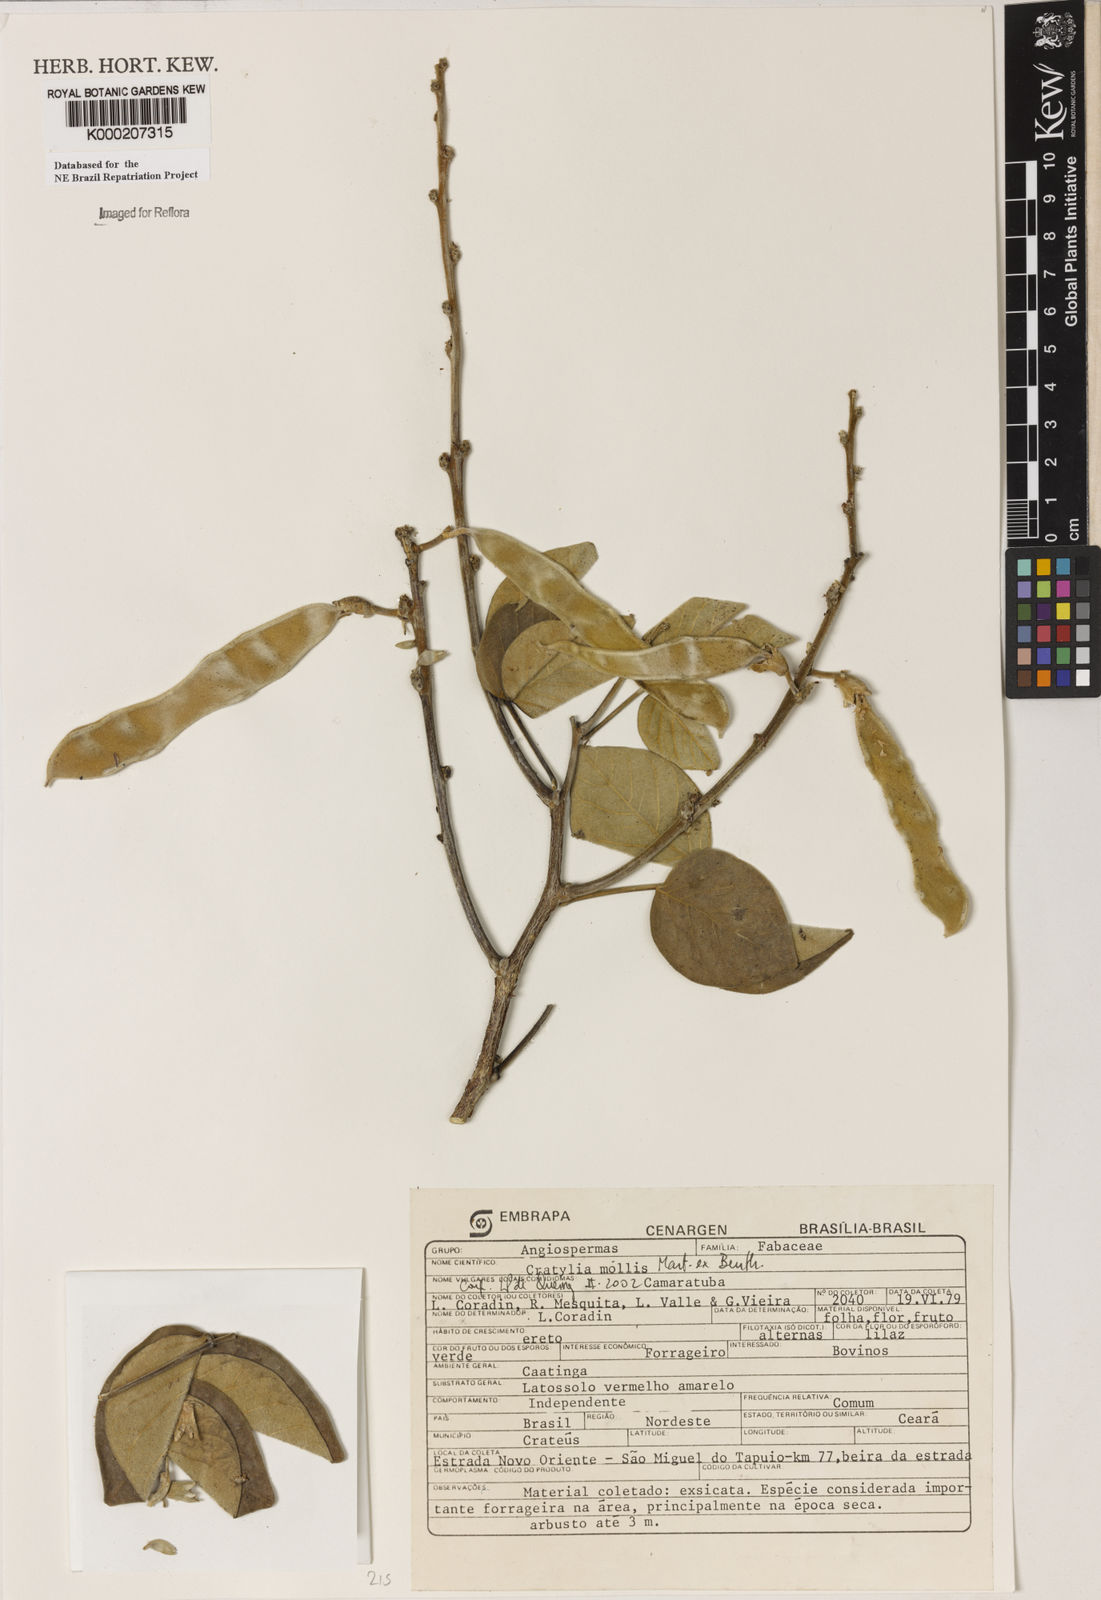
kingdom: Plantae
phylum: Tracheophyta
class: Magnoliopsida
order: Fabales
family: Fabaceae
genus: Cratylia
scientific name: Cratylia mollis
